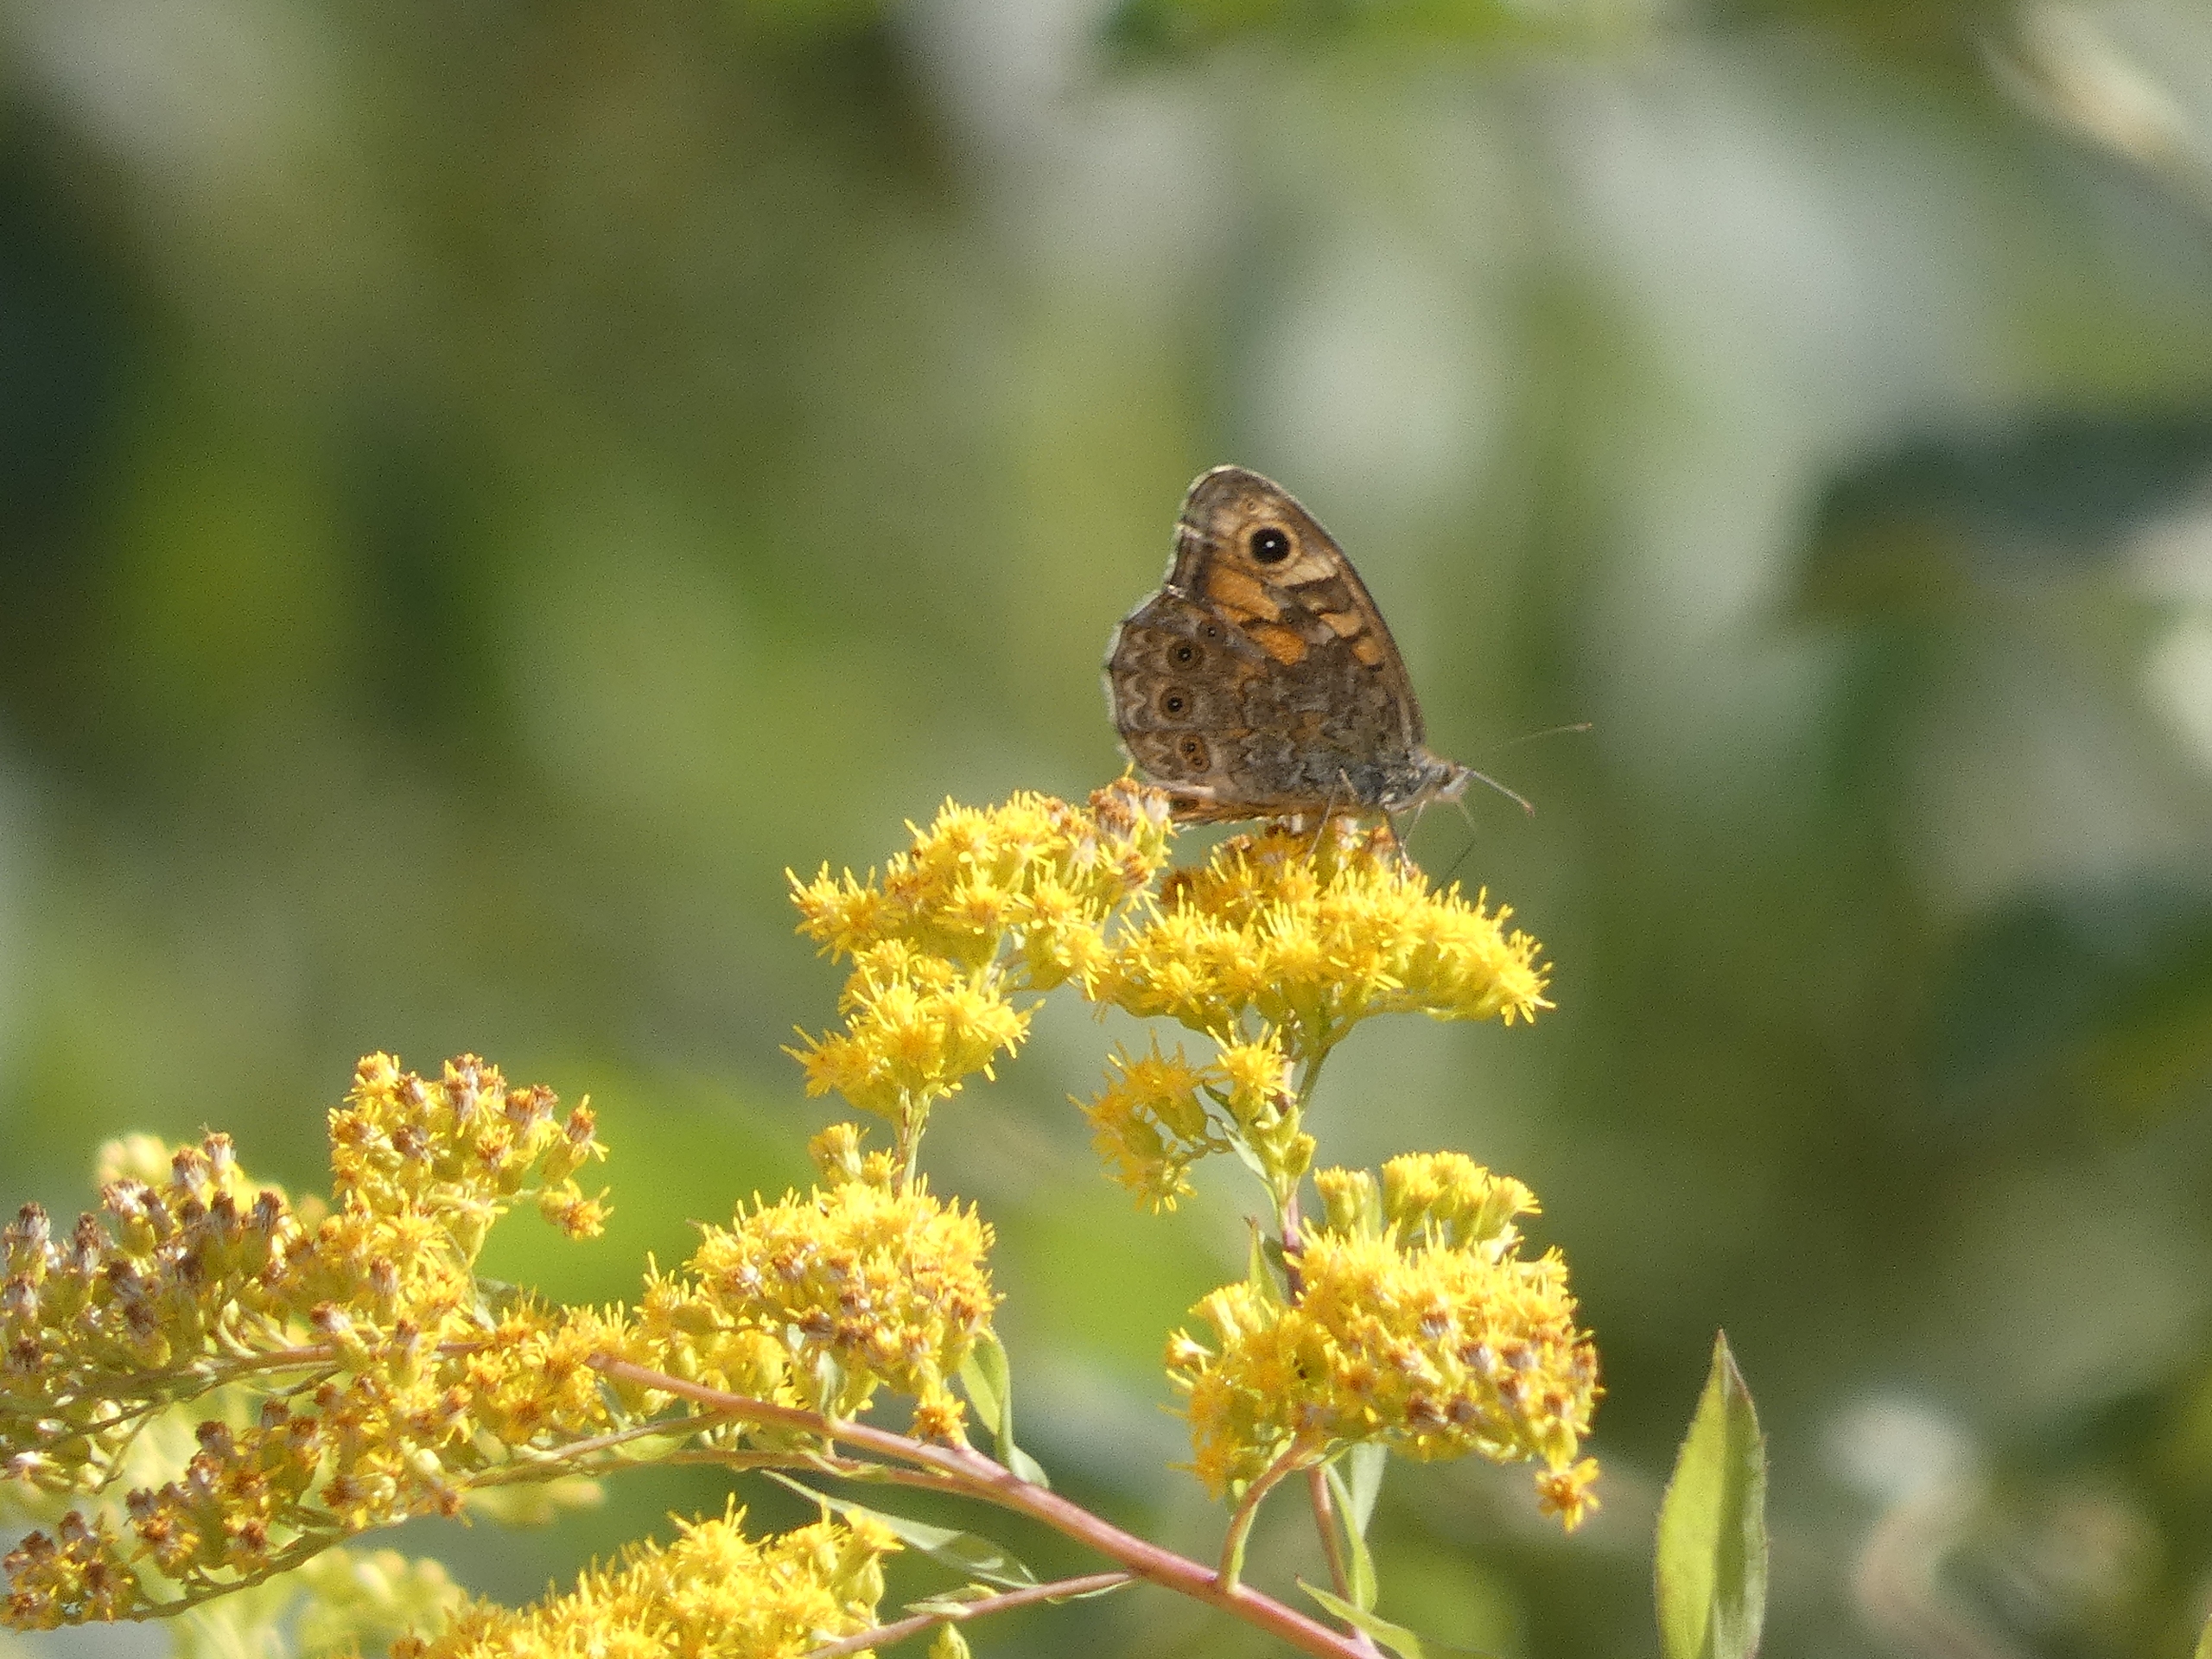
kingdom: Animalia
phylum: Arthropoda
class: Insecta
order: Lepidoptera
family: Nymphalidae
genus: Pararge
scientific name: Pararge Lasiommata megera
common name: Vejrandøje
